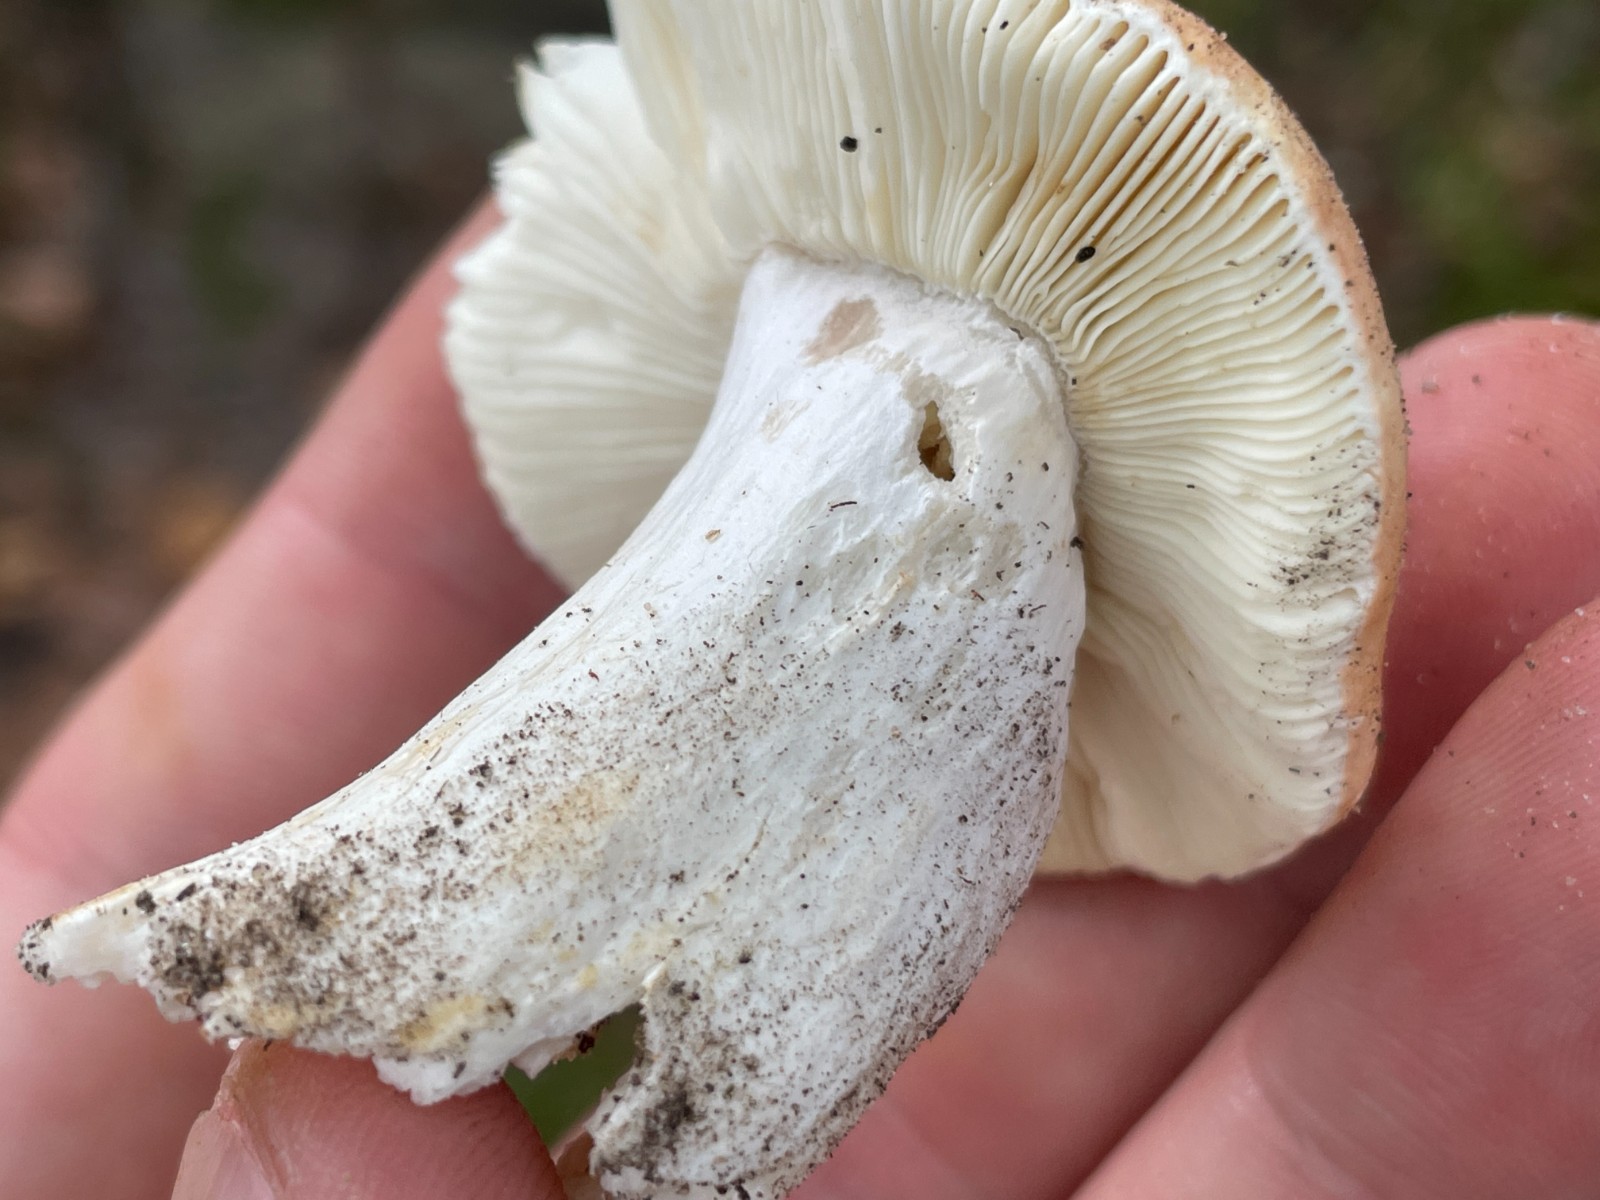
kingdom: Fungi
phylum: Basidiomycota
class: Agaricomycetes
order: Russulales
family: Russulaceae
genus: Russula
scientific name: Russula
